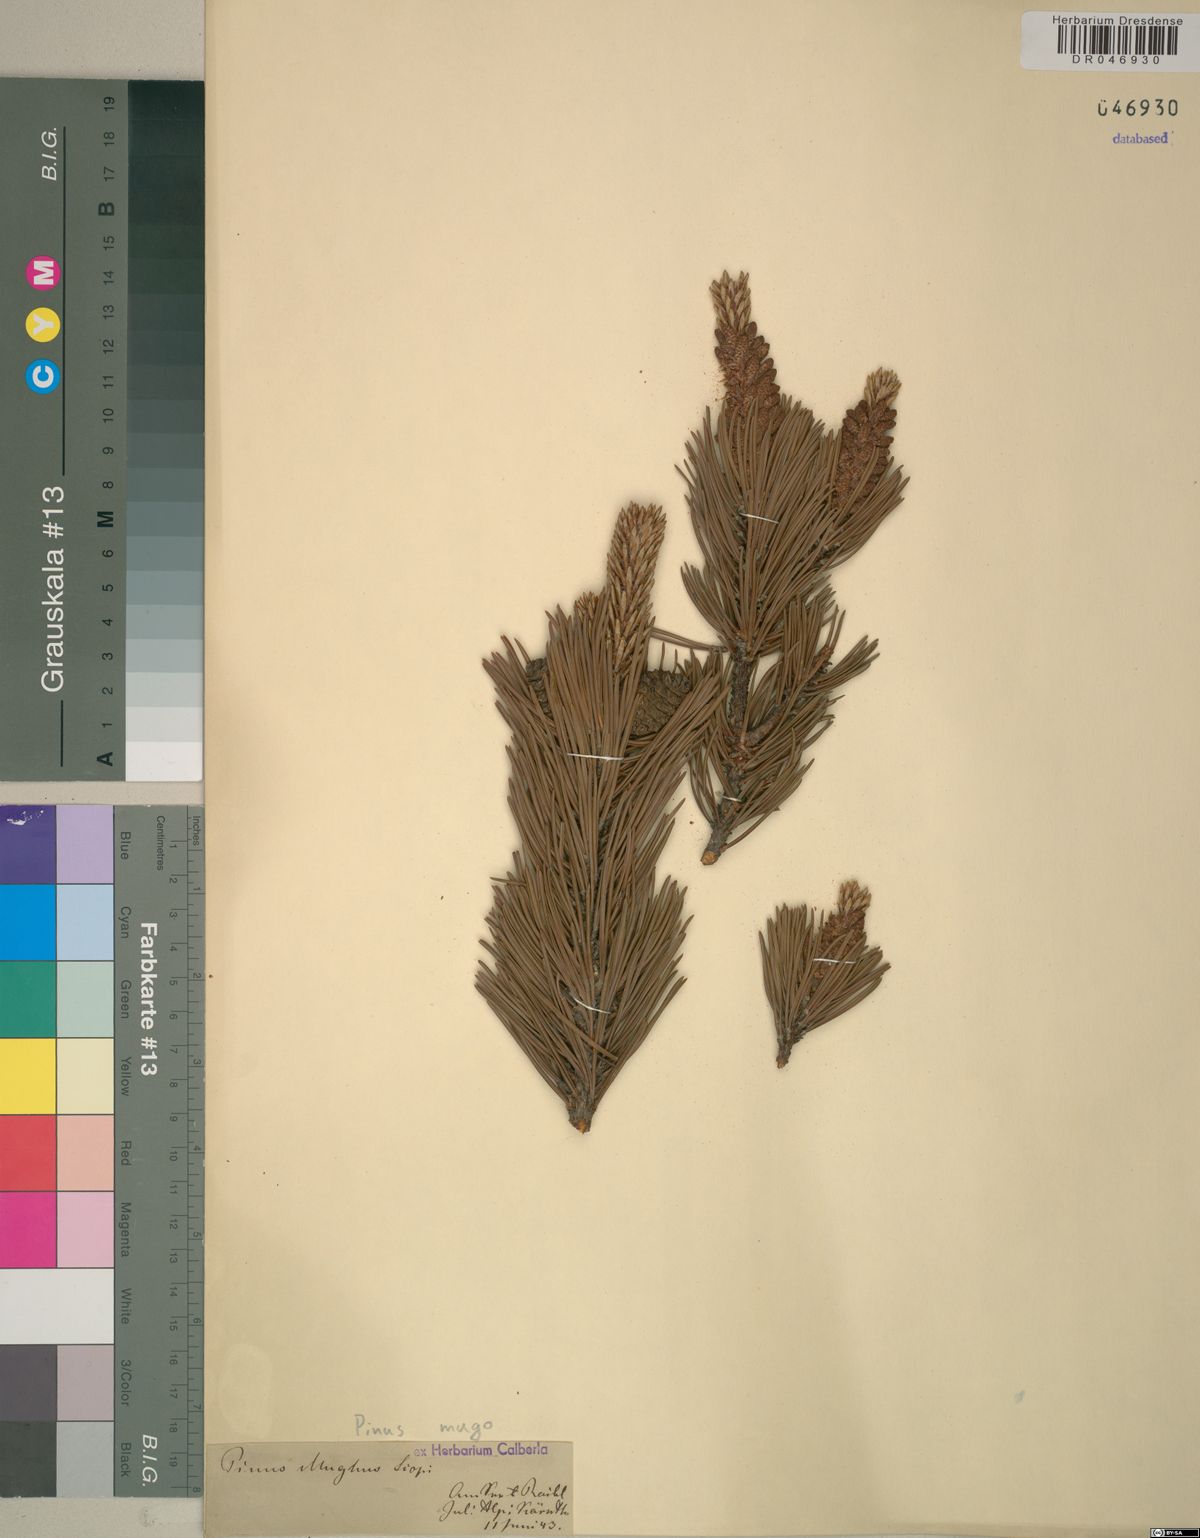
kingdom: Plantae
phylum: Tracheophyta
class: Pinopsida
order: Pinales
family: Pinaceae
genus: Pinus
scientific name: Pinus mugo
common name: Mugo pine
